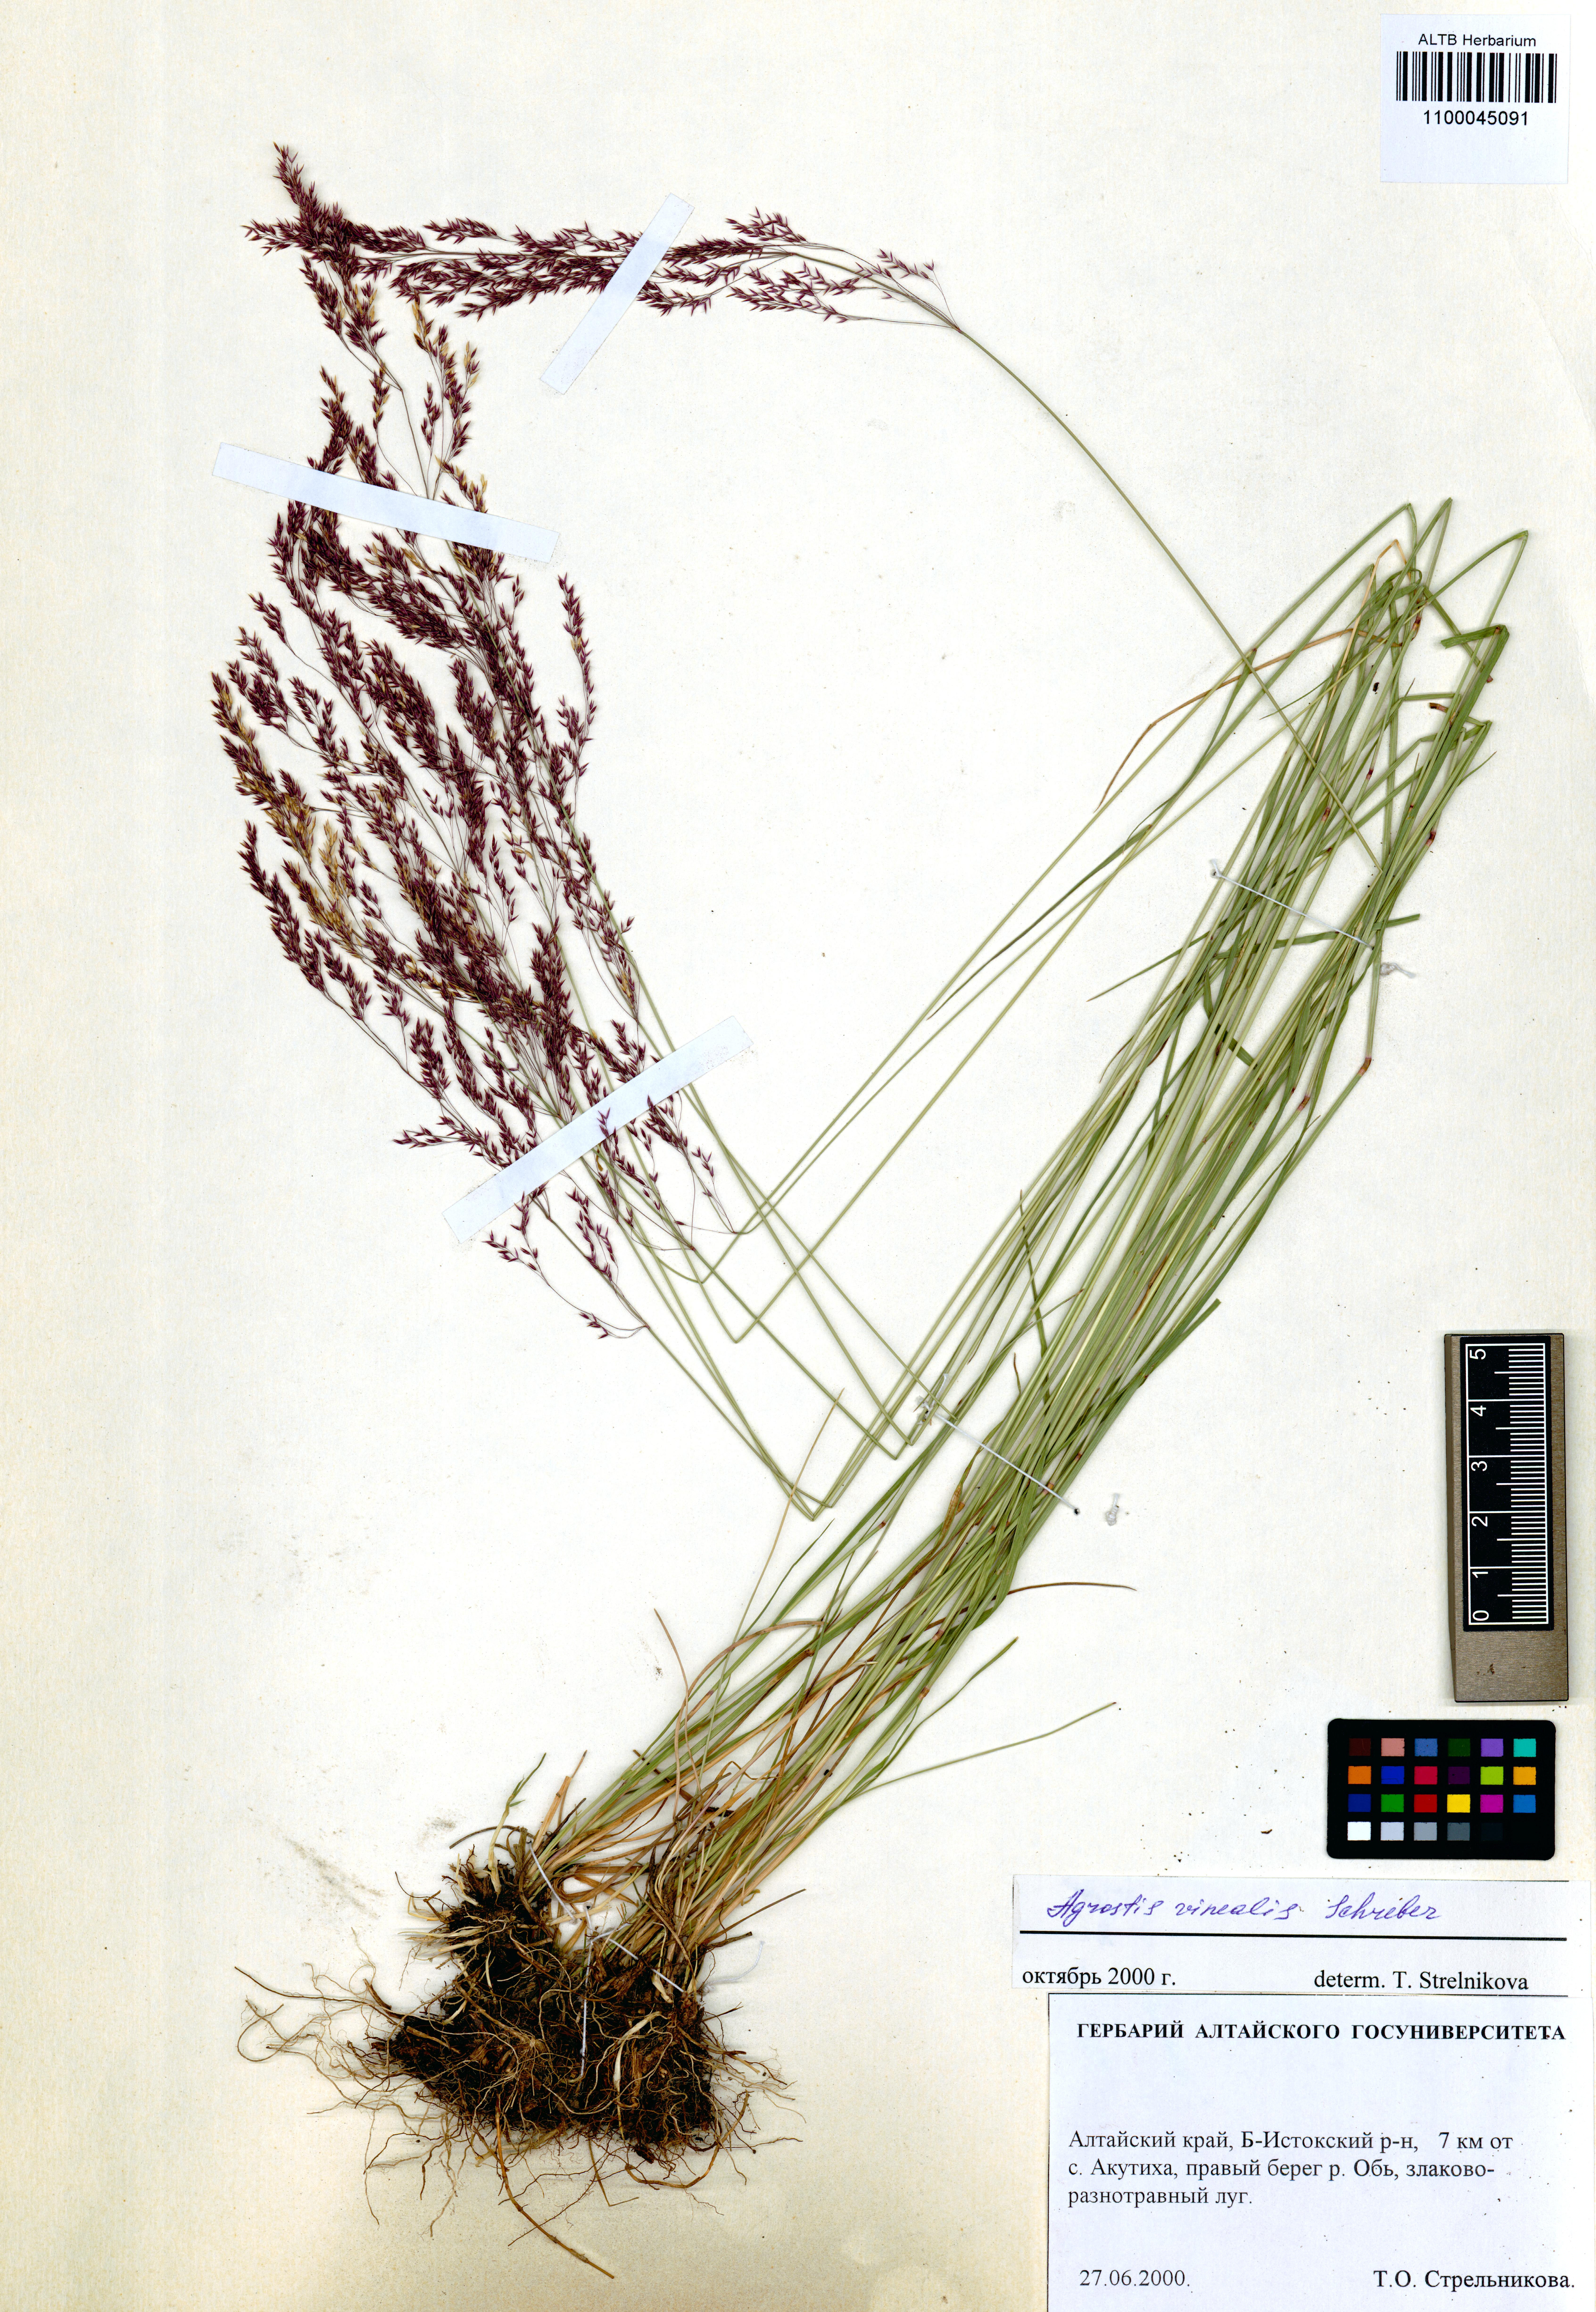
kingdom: Plantae
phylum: Tracheophyta
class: Liliopsida
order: Poales
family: Poaceae
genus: Agrostis
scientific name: Agrostis vinealis
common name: Brown bent
